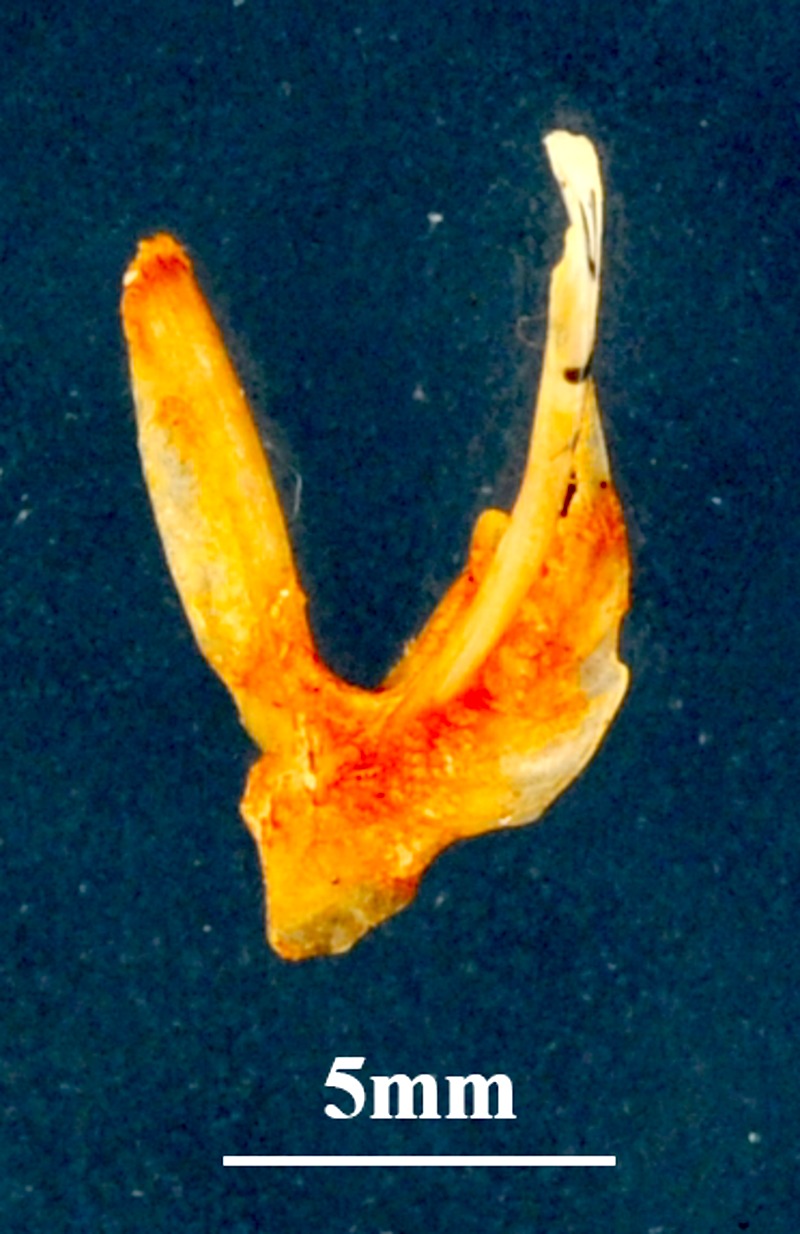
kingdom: Animalia
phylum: Chordata
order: Perciformes
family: Mullidae
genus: Mullus
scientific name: Mullus surmuletus
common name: Red mullet
